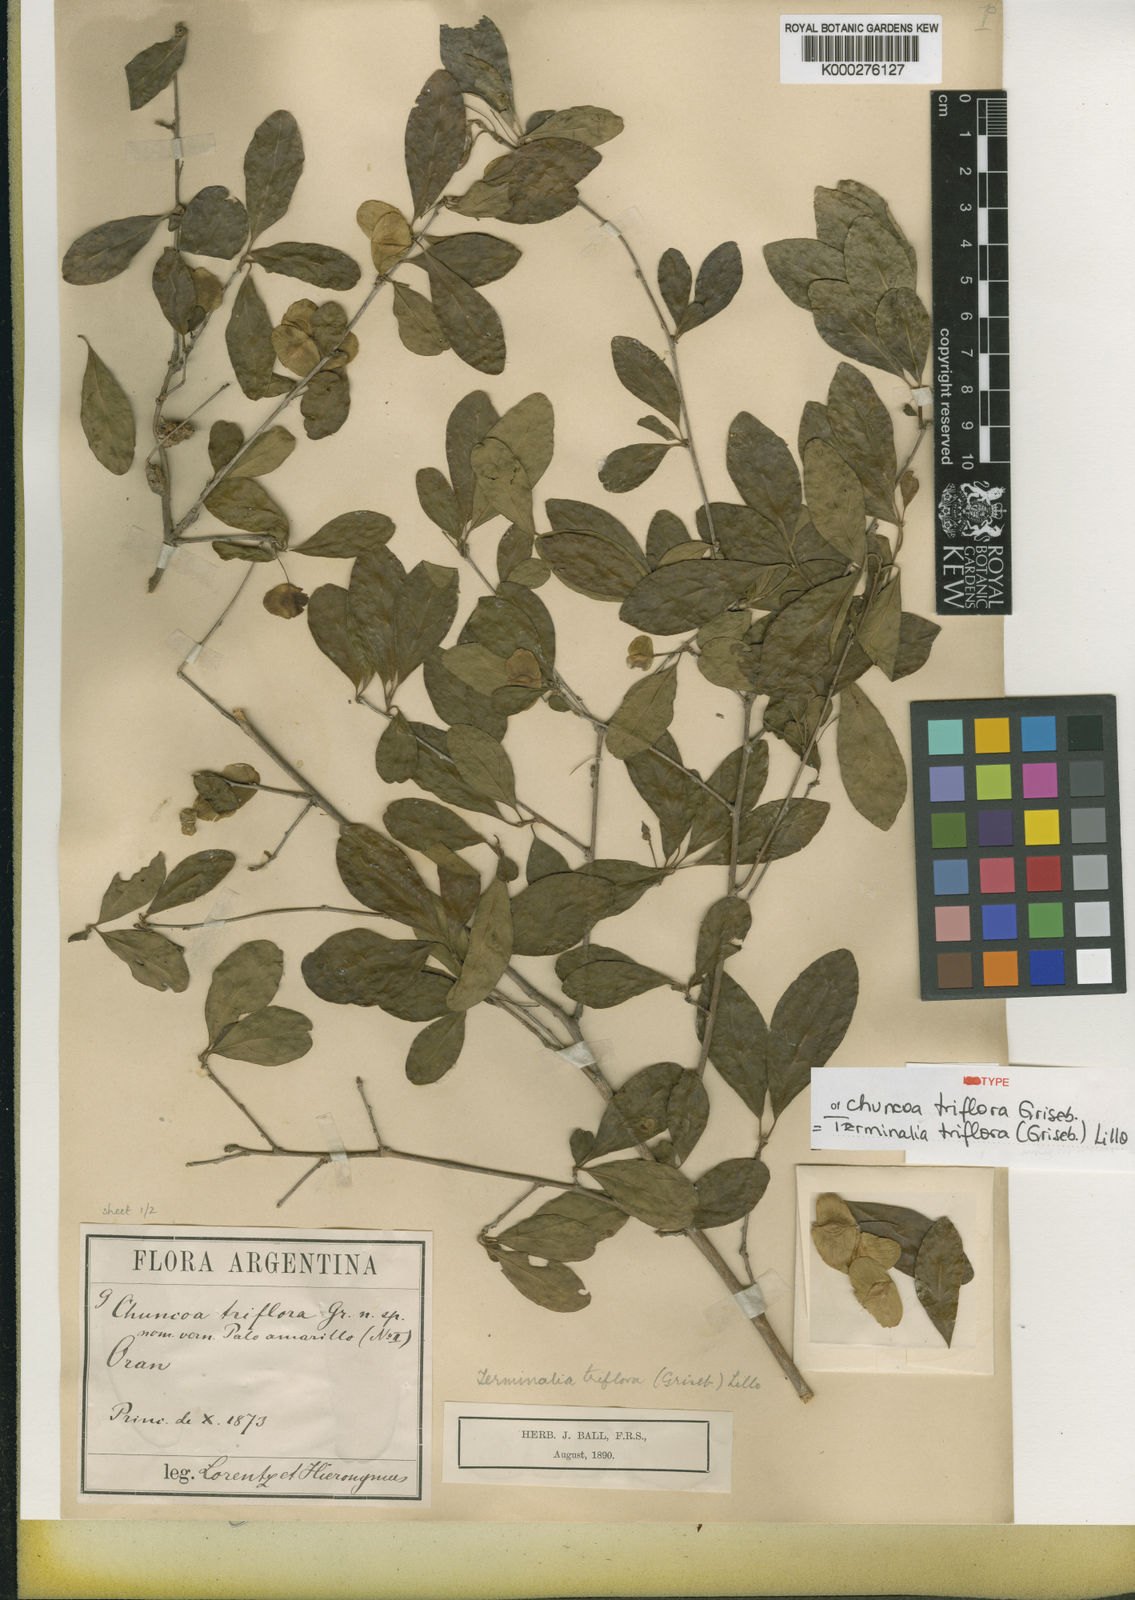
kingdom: Plantae
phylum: Tracheophyta
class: Magnoliopsida
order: Myrtales
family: Combretaceae
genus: Terminalia
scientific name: Terminalia triflora
